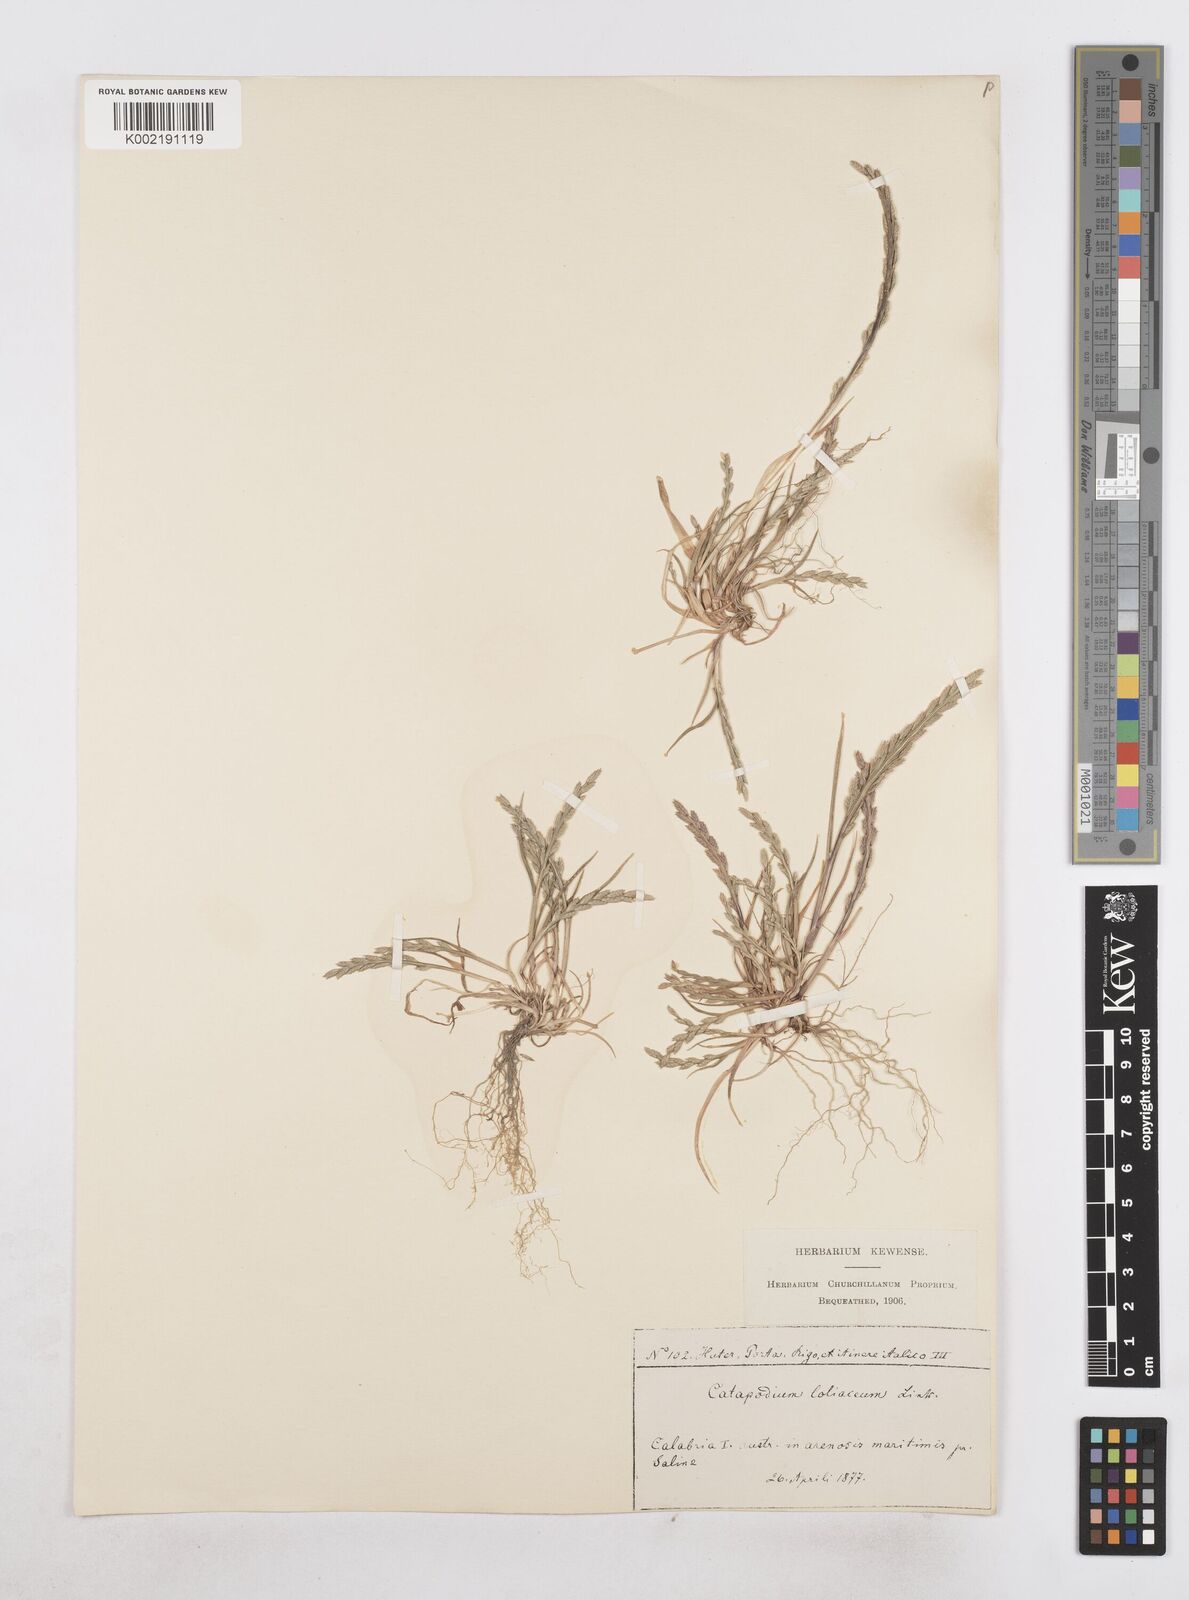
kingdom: Plantae
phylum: Tracheophyta
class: Liliopsida
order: Poales
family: Poaceae
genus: Catapodium
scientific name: Catapodium marinum
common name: Sea fern-grass
